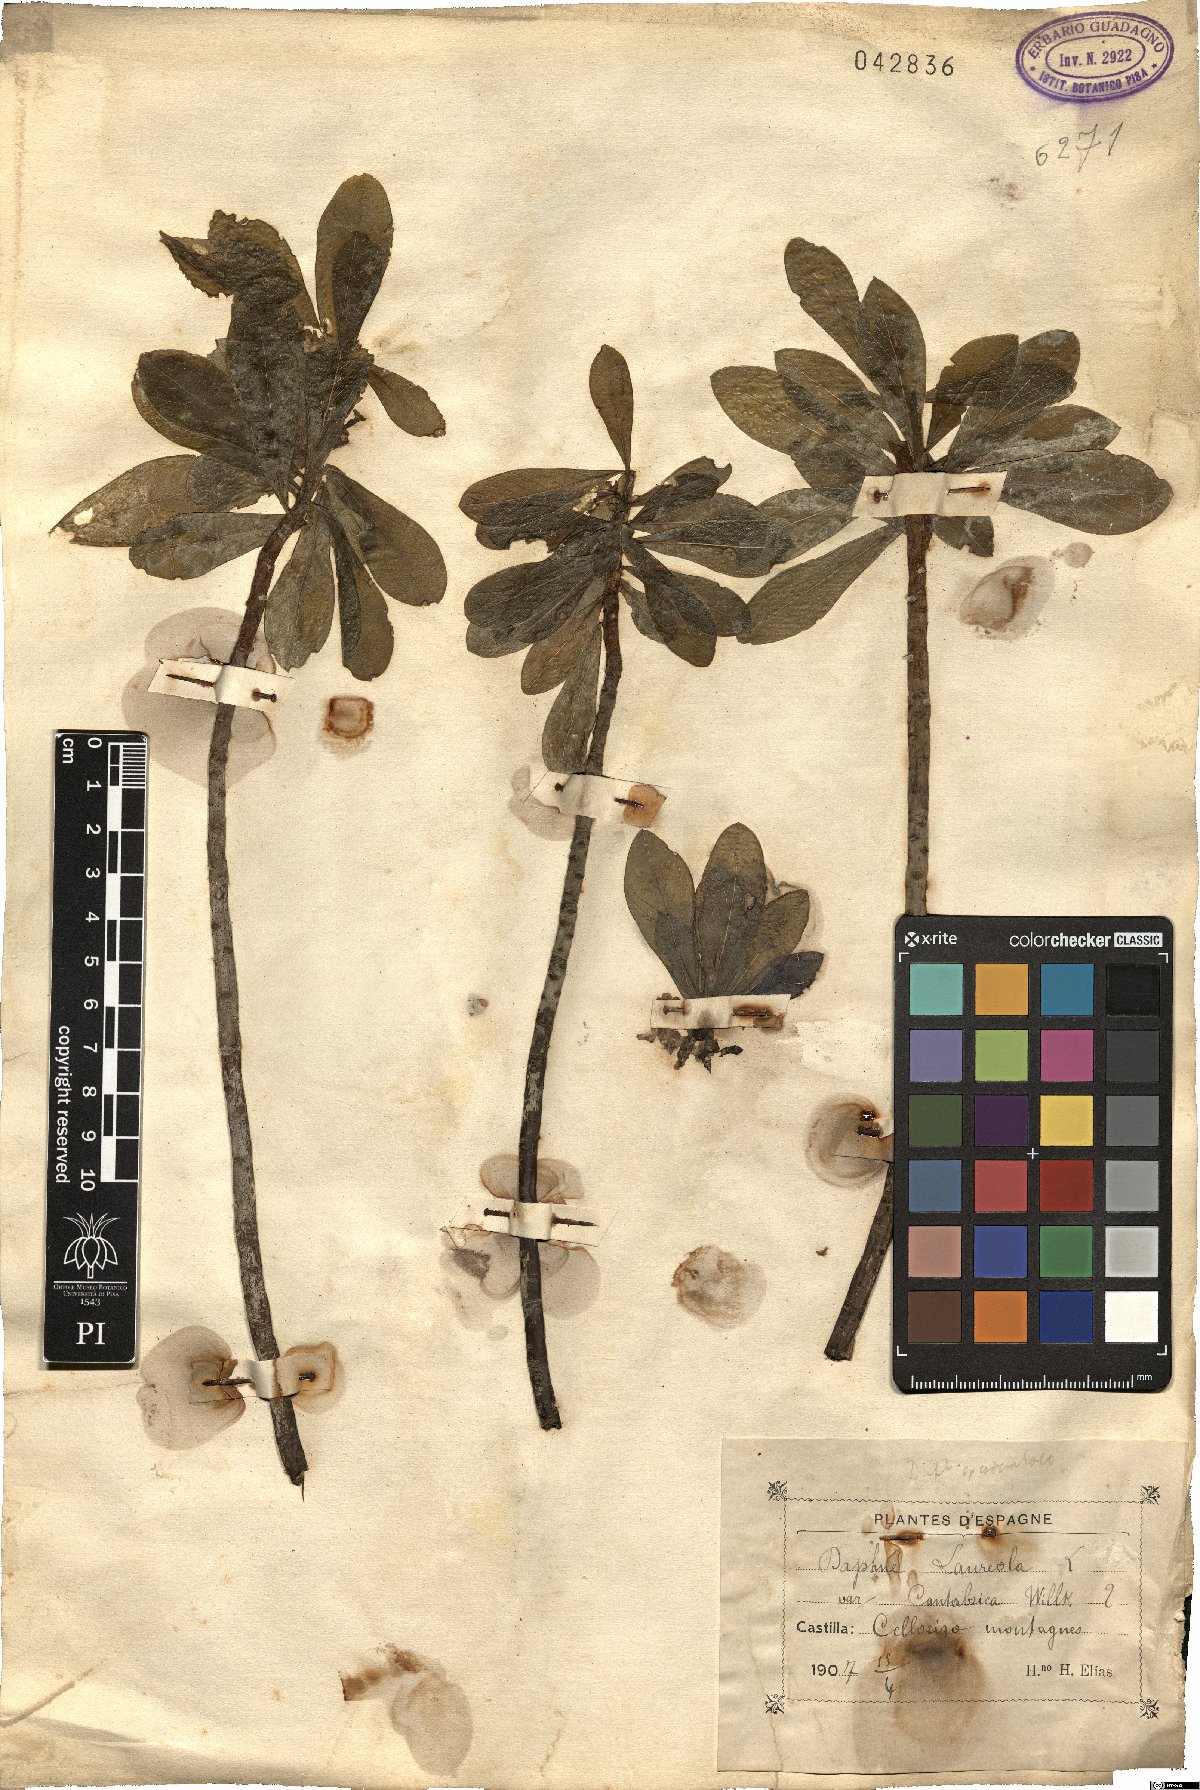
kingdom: Plantae
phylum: Tracheophyta
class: Magnoliopsida
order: Malvales
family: Thymelaeaceae
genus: Daphne
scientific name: Daphne laureola
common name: Spurge-laurel
